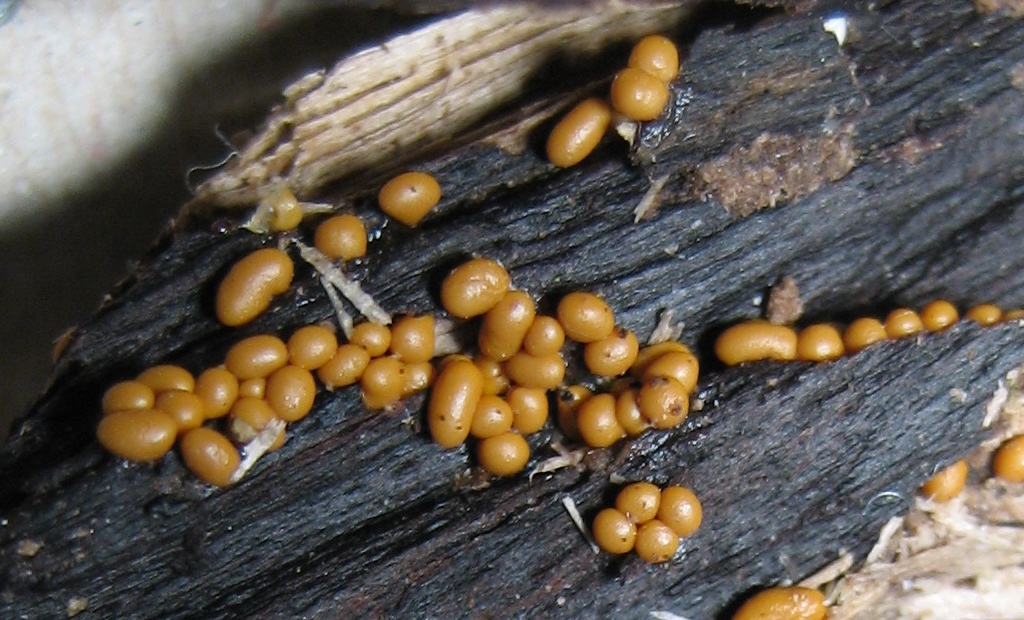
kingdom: Protozoa
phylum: Mycetozoa
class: Myxomycetes
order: Trichiales
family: Trichiaceae
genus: Trichia
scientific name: Trichia
